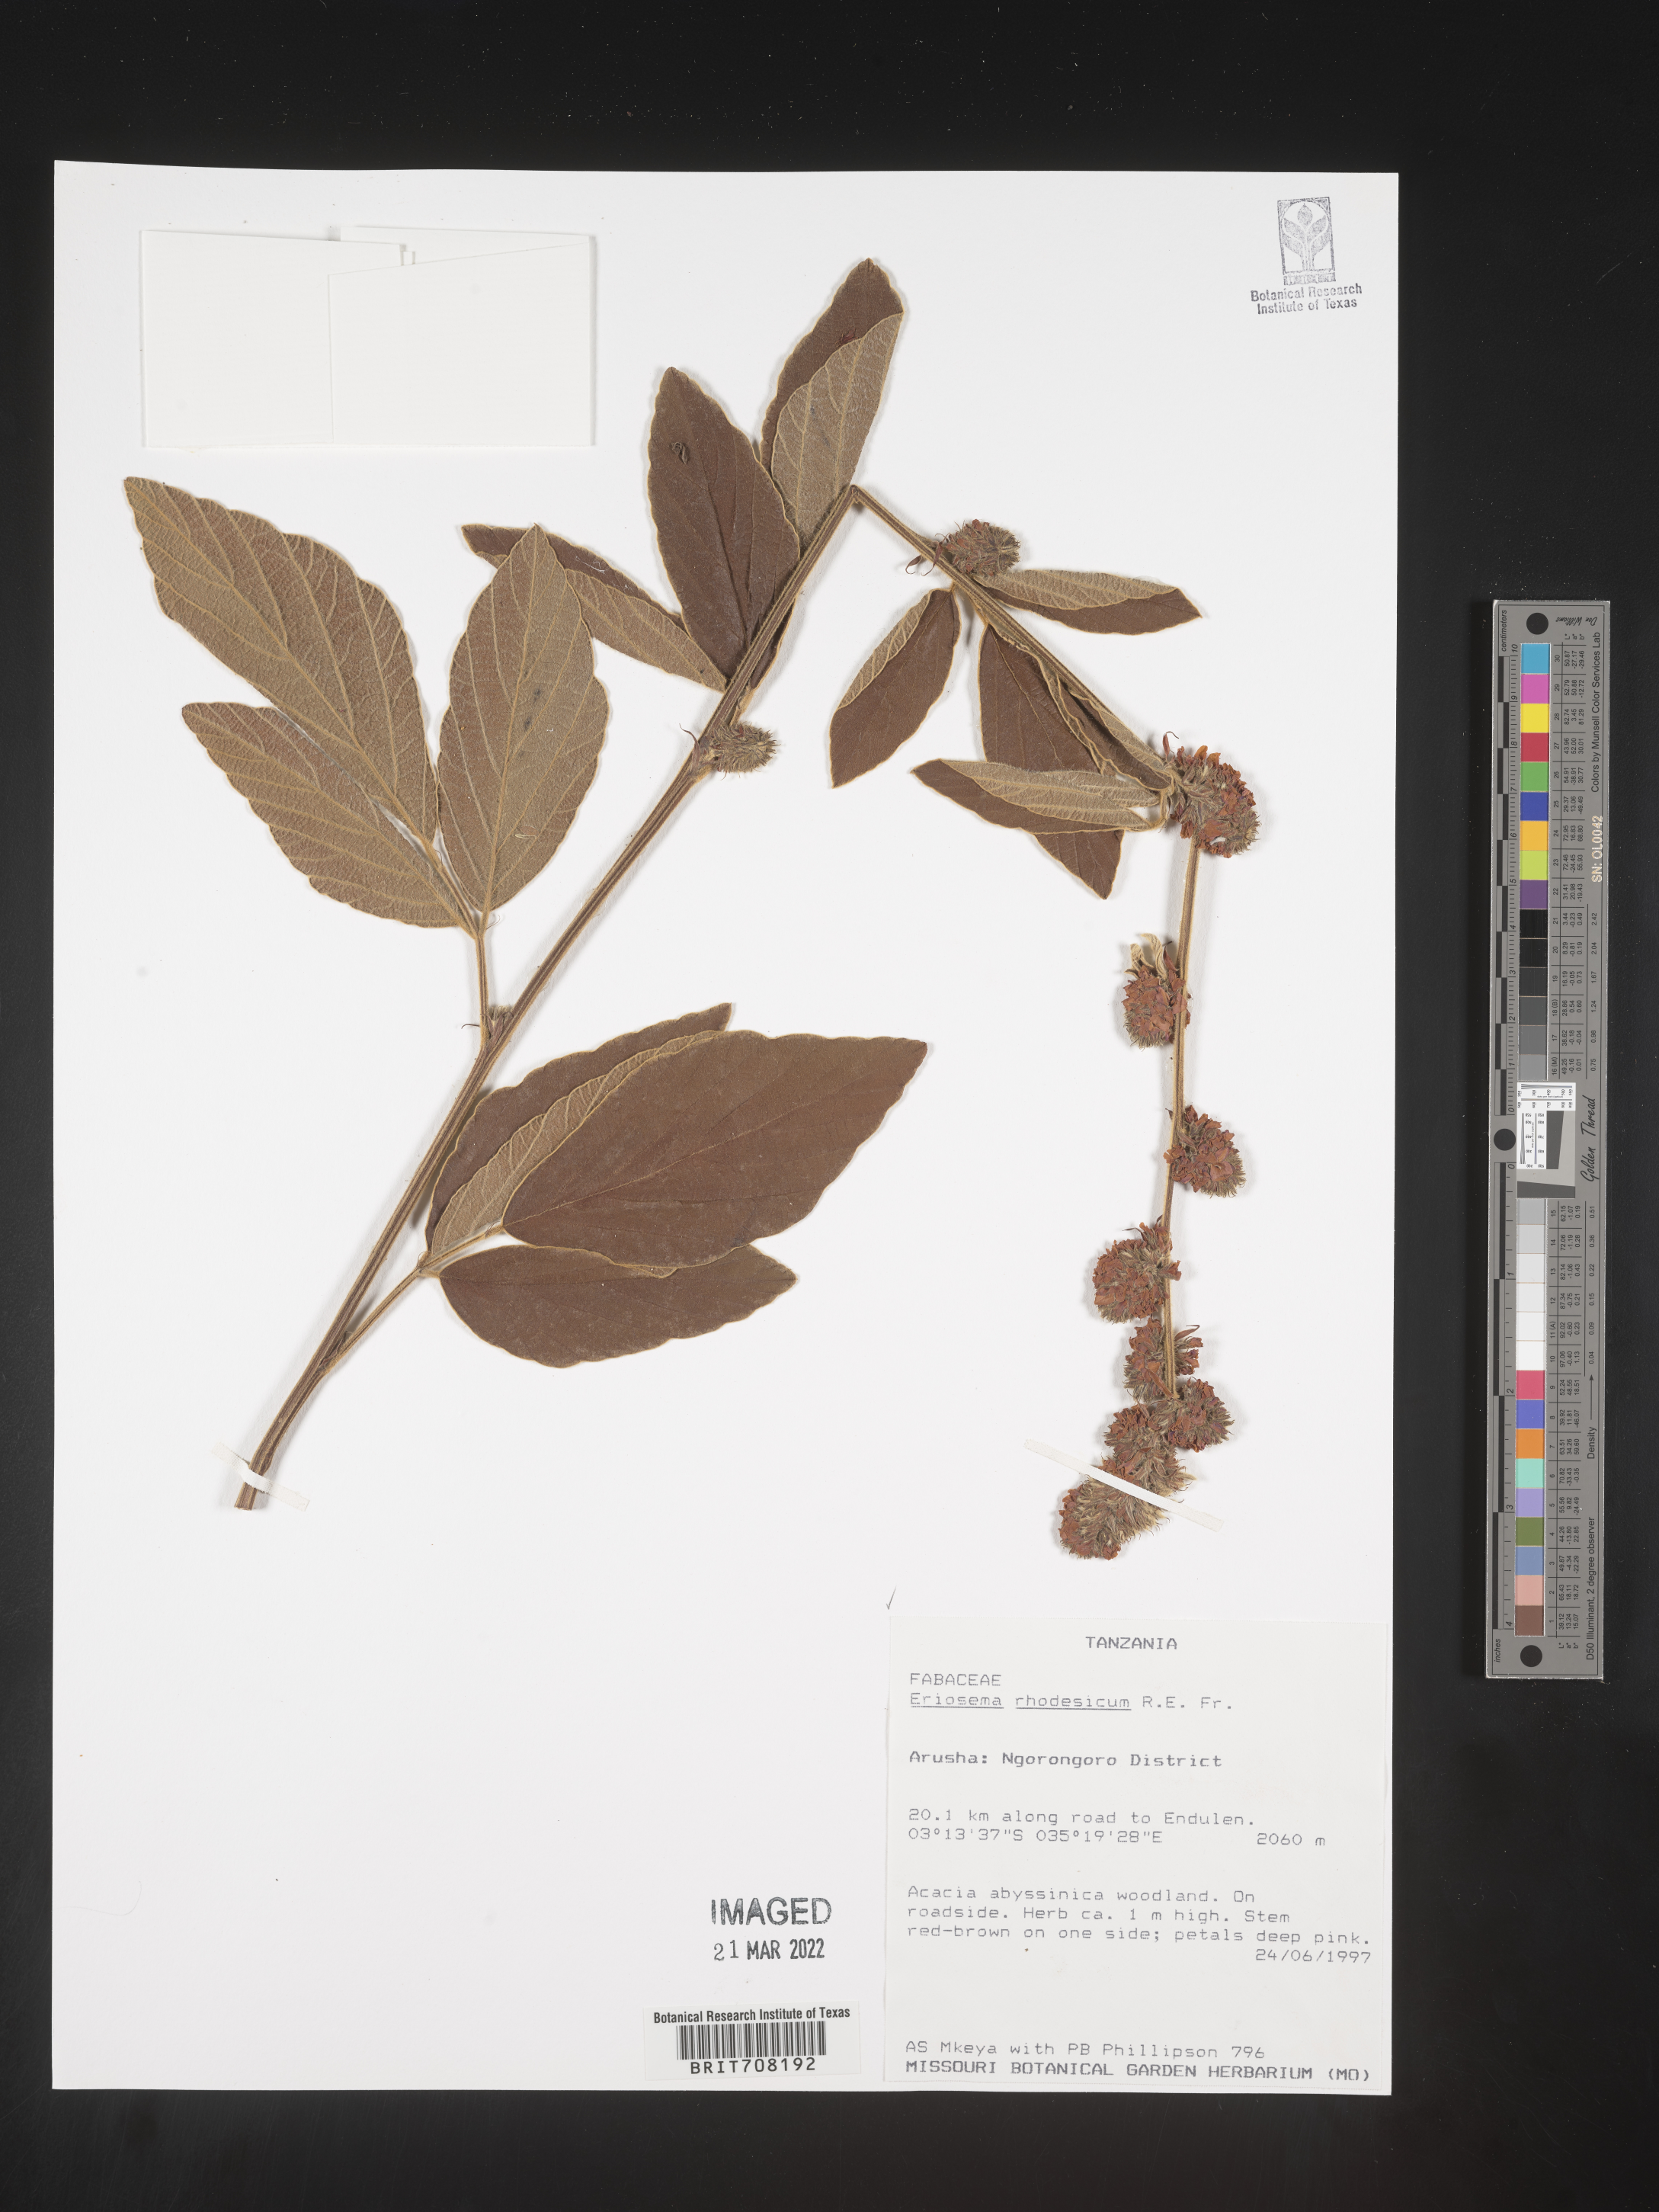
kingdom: Plantae
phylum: Tracheophyta
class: Magnoliopsida
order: Fabales
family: Fabaceae
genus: Eriosema
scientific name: Eriosema
